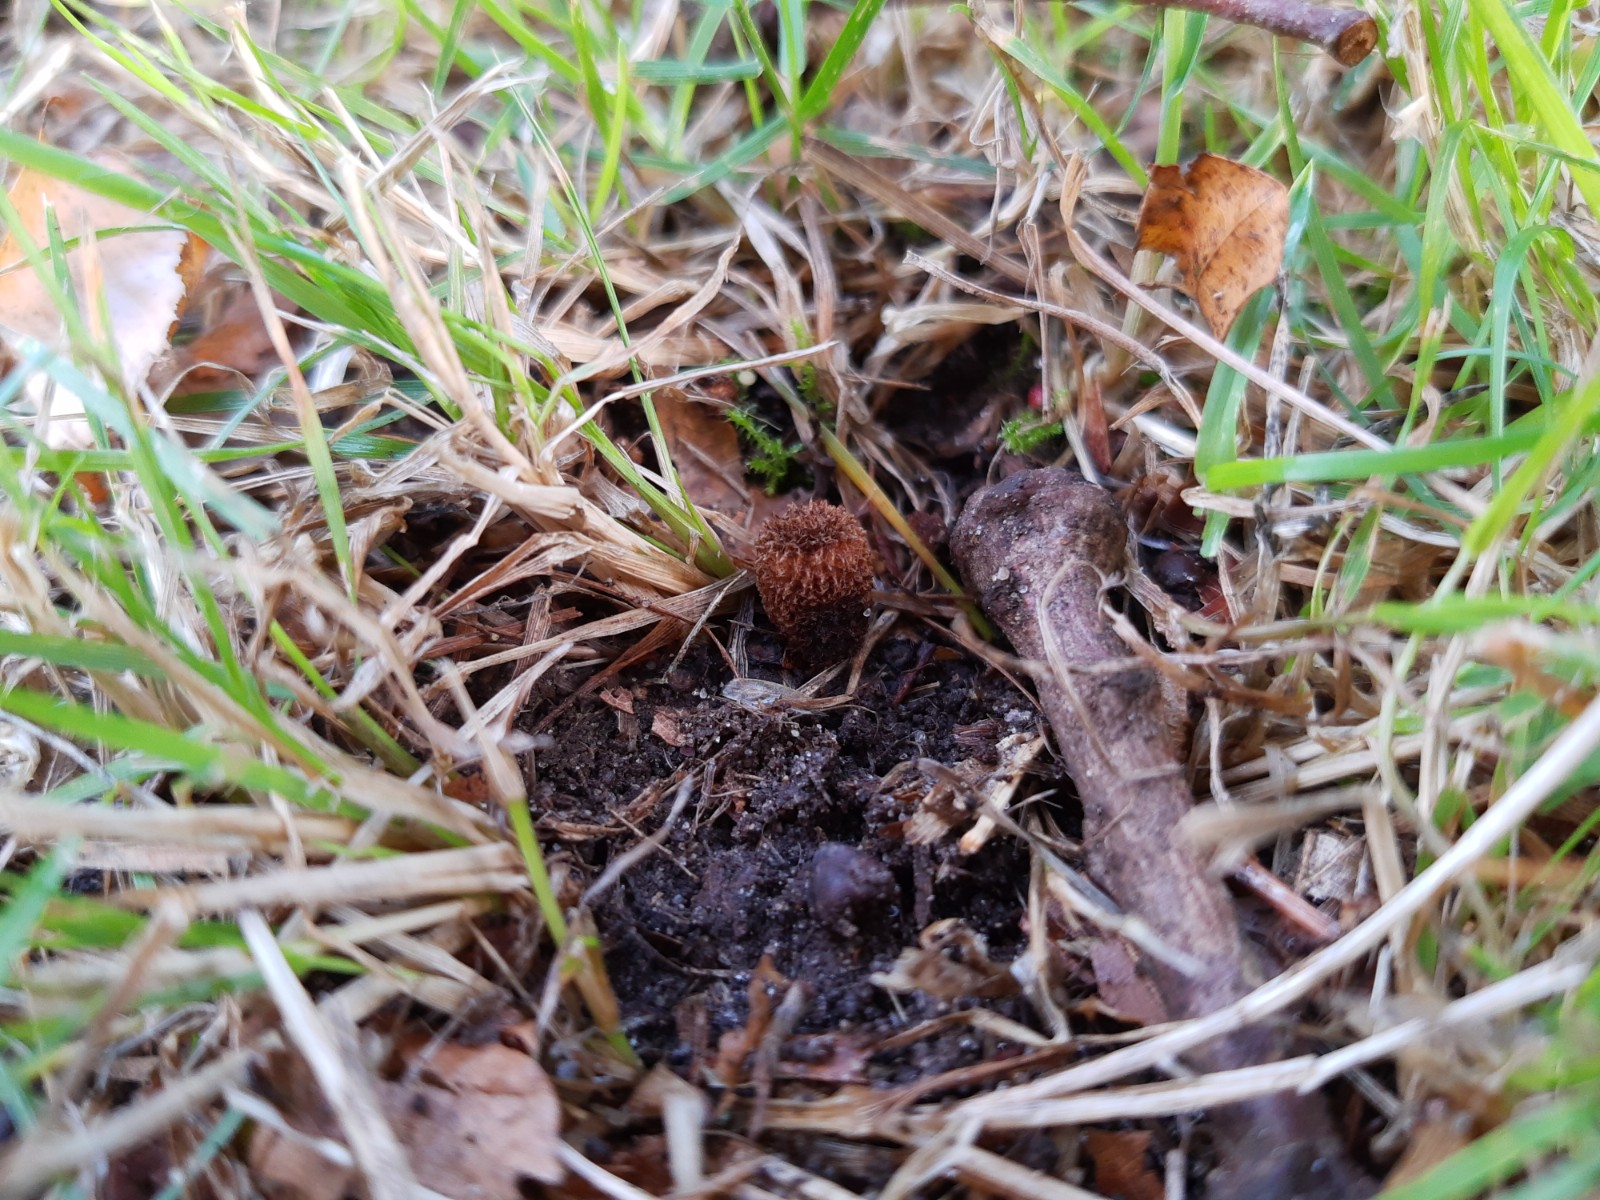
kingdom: Fungi
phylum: Basidiomycota
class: Agaricomycetes
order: Agaricales
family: Agaricaceae
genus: Cyathus
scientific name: Cyathus striatus
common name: stribet redesvamp
